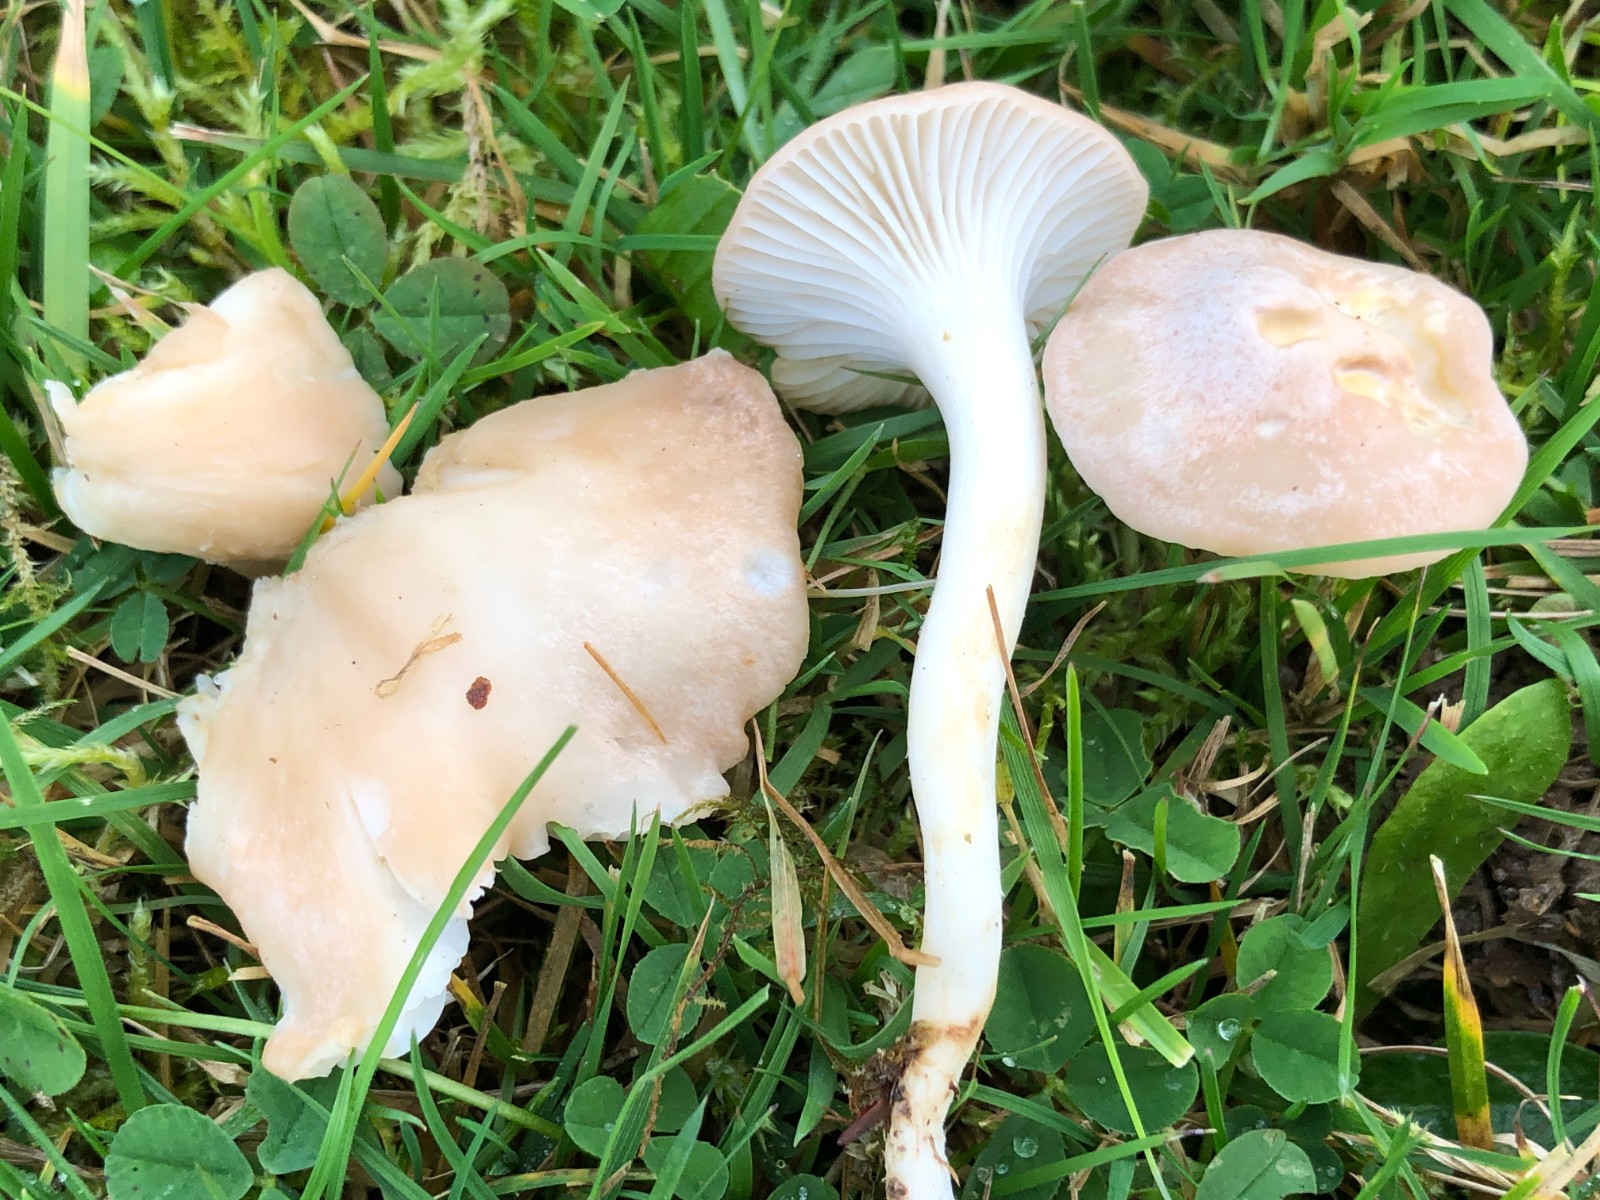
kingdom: Fungi
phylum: Basidiomycota
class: Agaricomycetes
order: Agaricales
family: Hygrophoraceae
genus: Cuphophyllus
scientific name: Cuphophyllus
